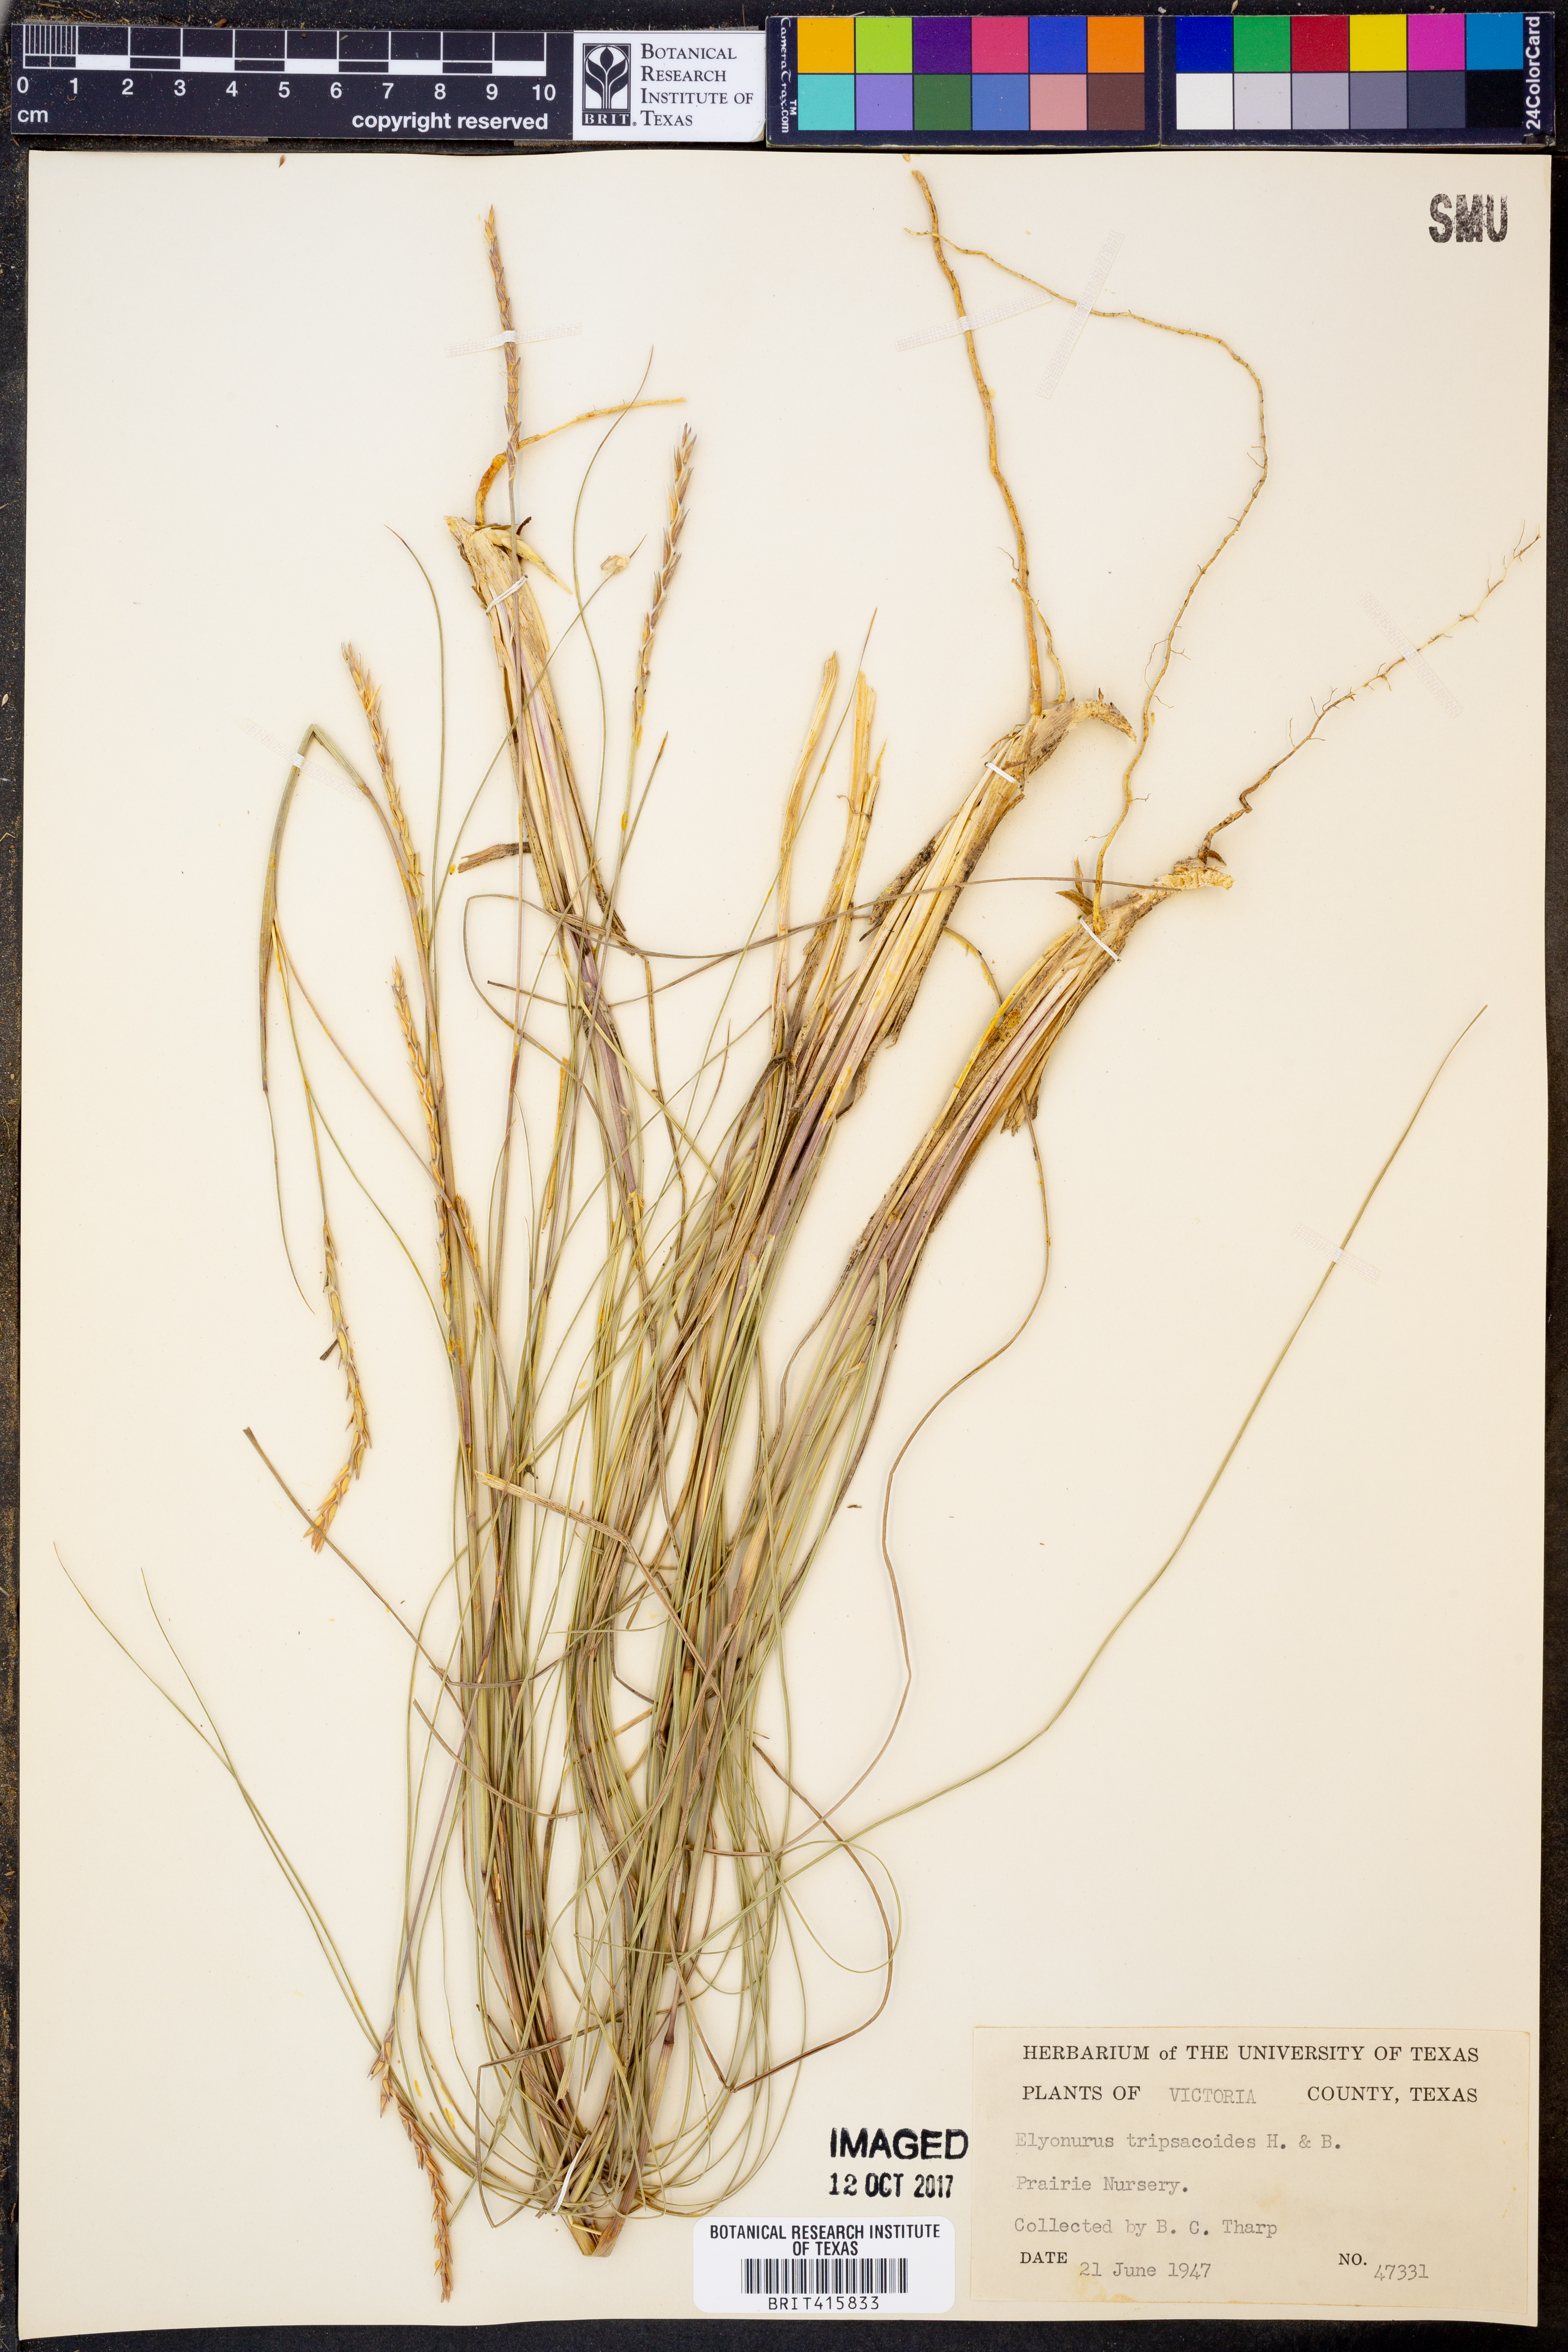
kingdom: Plantae
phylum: Tracheophyta
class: Liliopsida
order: Poales
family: Poaceae
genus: Elionurus
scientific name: Elionurus tripsacoides
